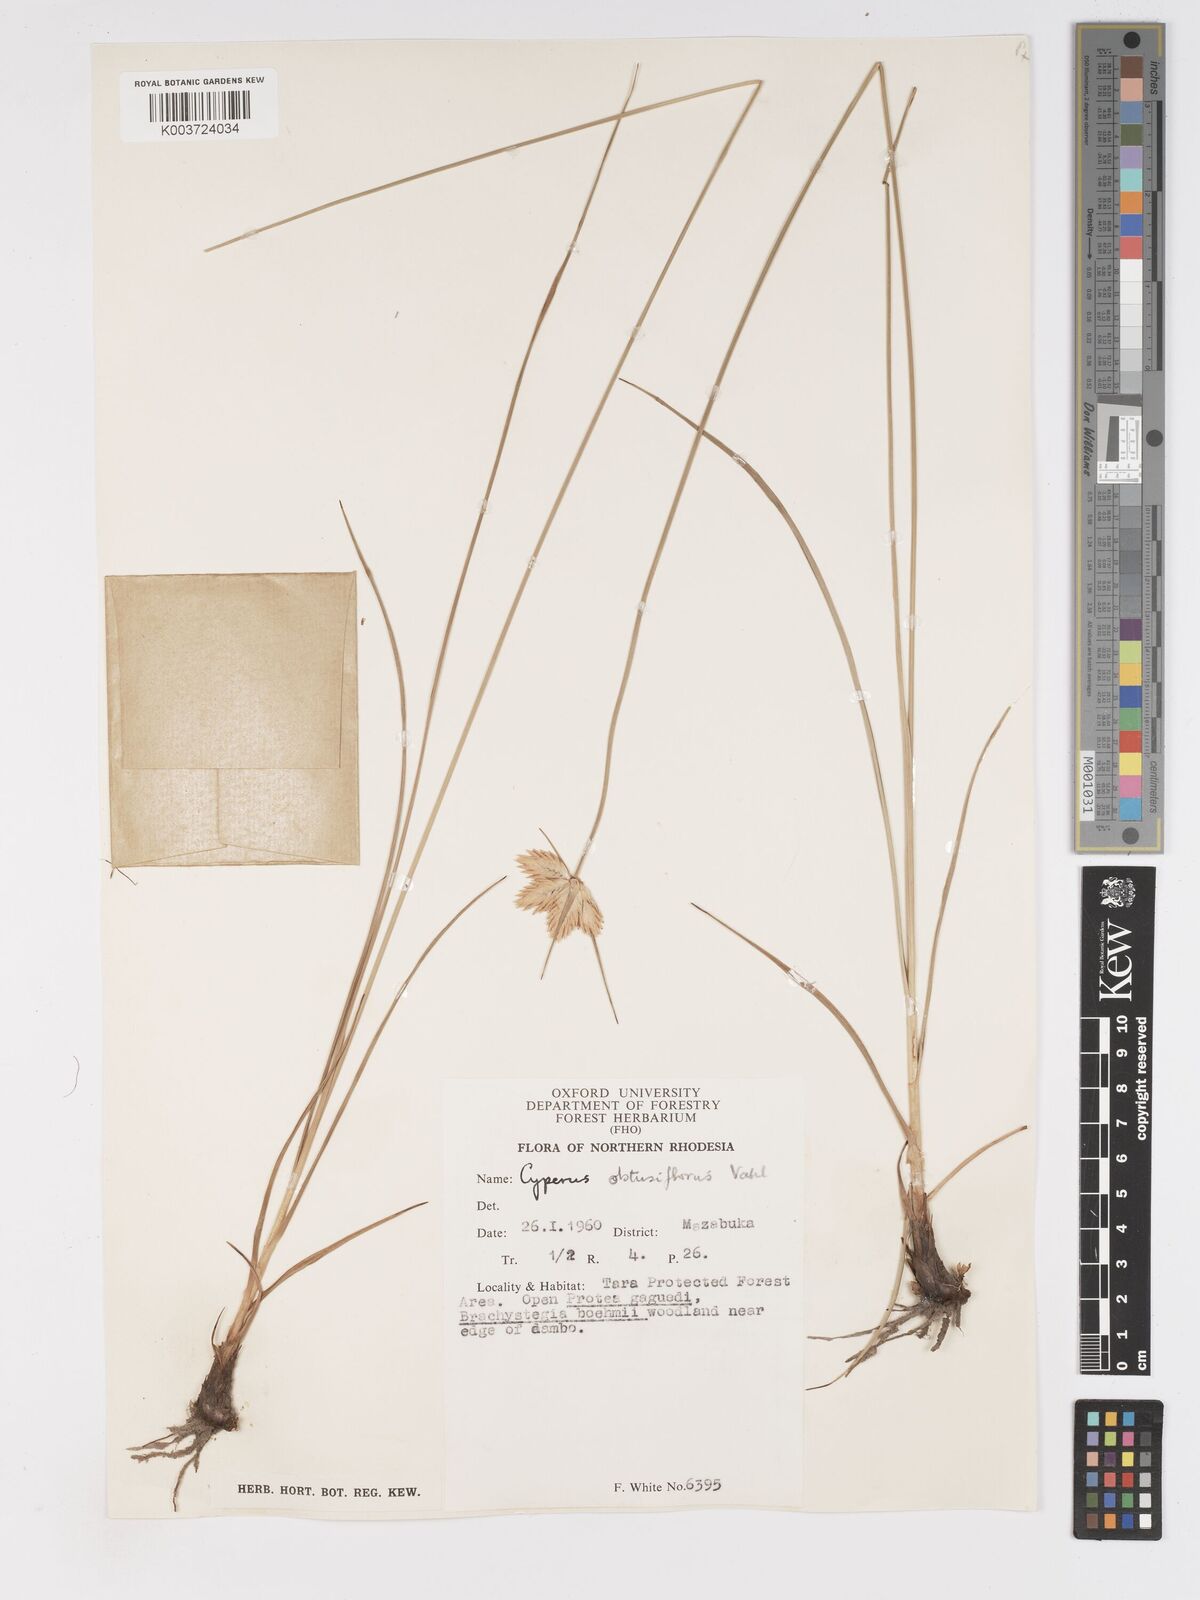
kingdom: Plantae
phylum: Tracheophyta
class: Liliopsida
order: Poales
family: Cyperaceae
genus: Cyperus
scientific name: Cyperus niveus
